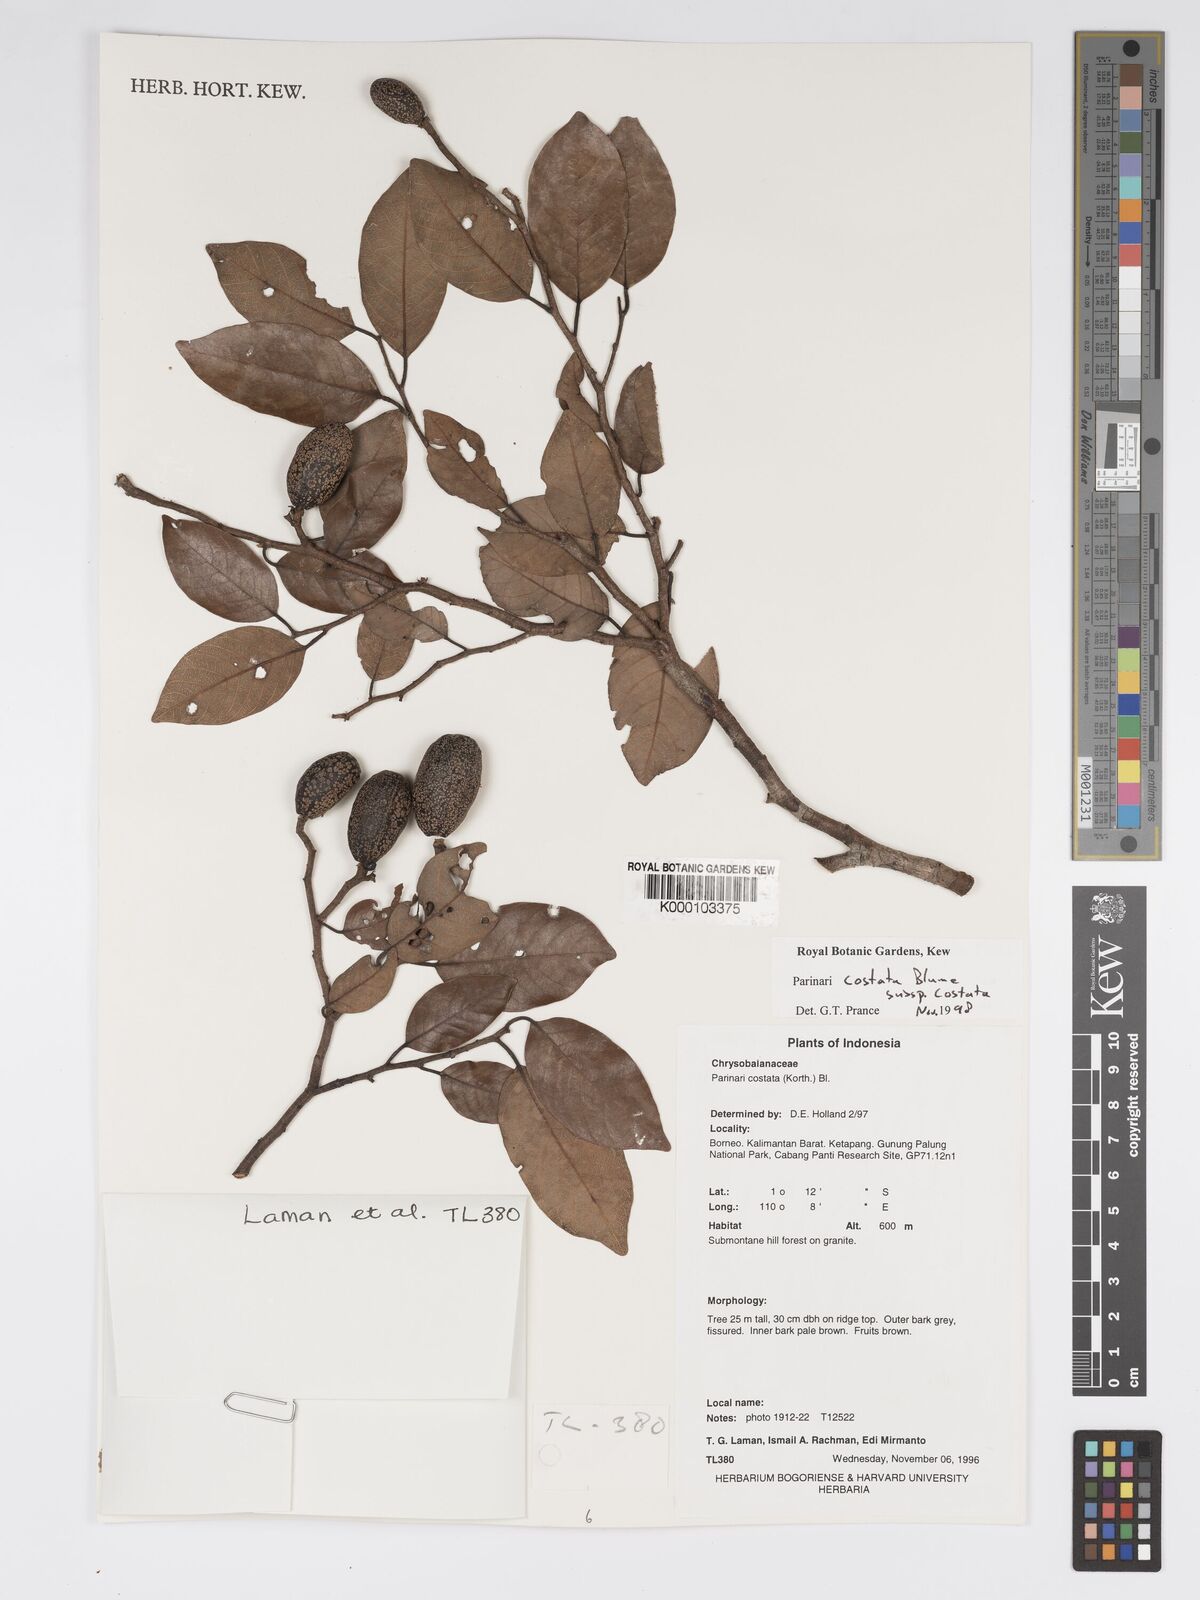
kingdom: Plantae
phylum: Tracheophyta
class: Magnoliopsida
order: Malpighiales
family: Chrysobalanaceae
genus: Parinari
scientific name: Parinari costata
